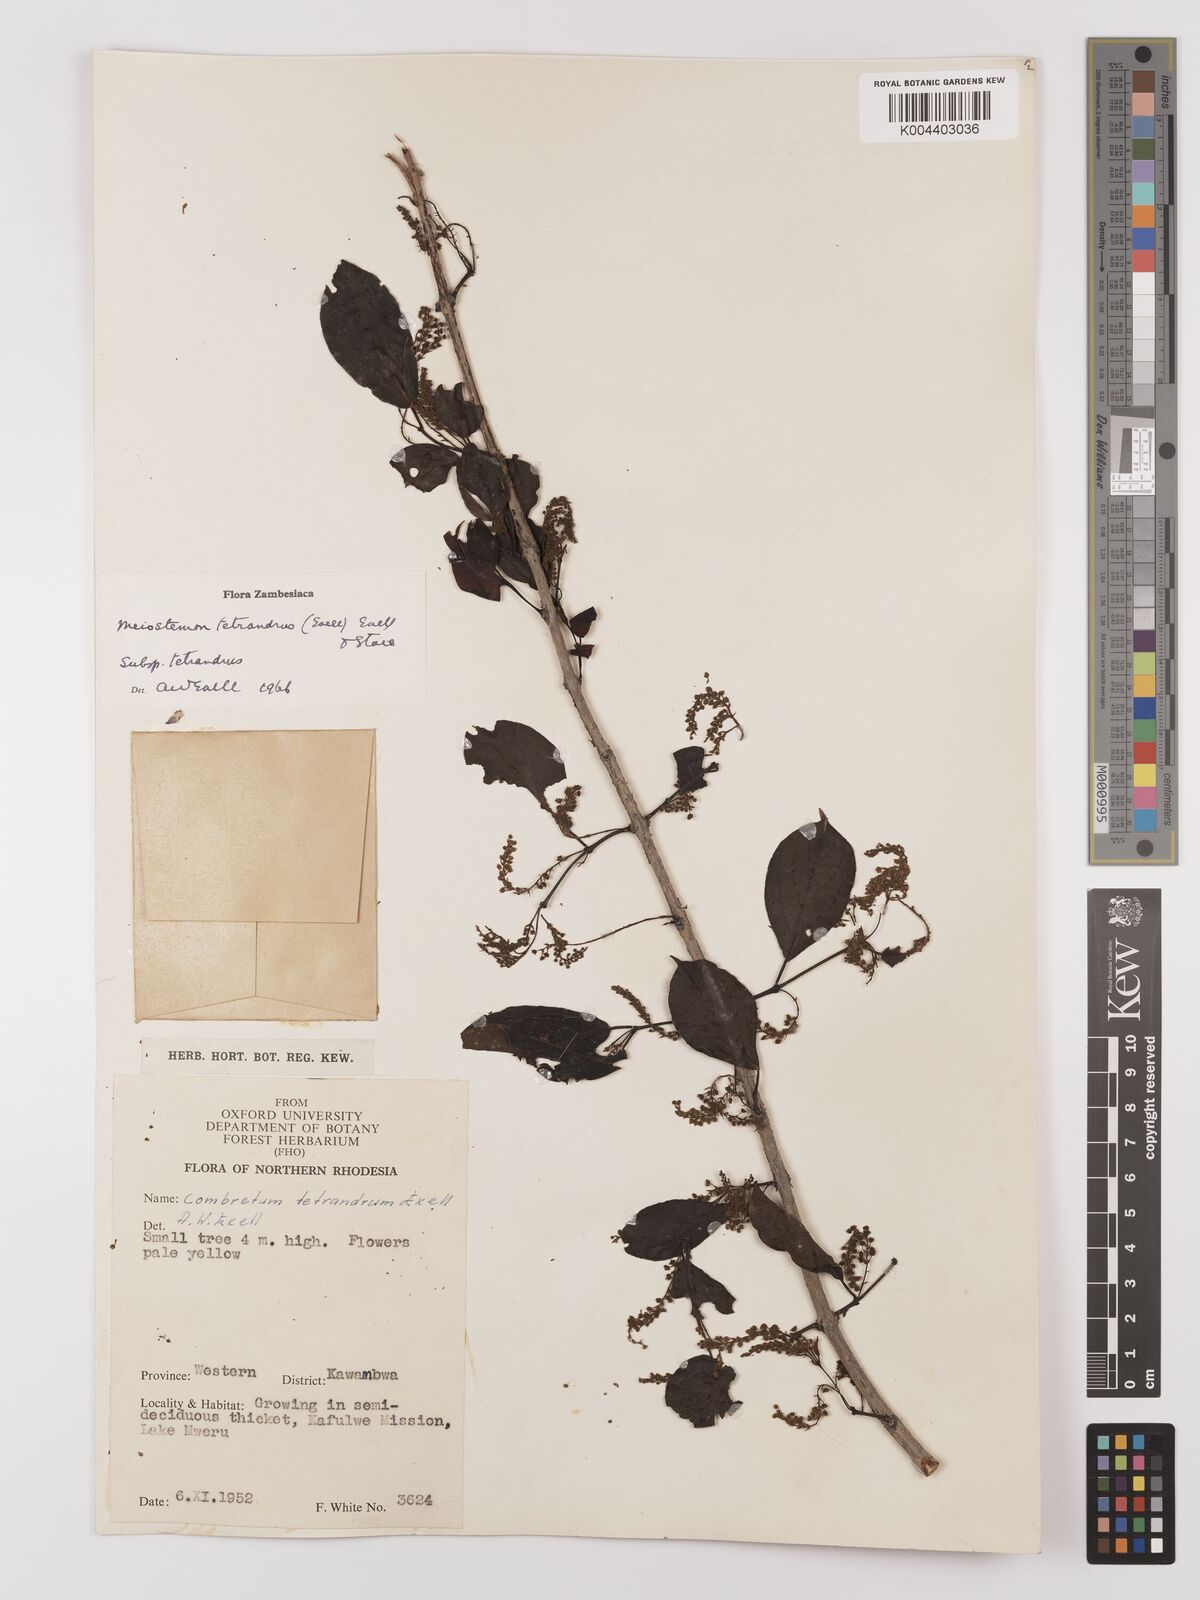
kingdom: Plantae
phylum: Tracheophyta
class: Magnoliopsida
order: Myrtales
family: Combretaceae
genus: Combretum
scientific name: Combretum tetrandrum
